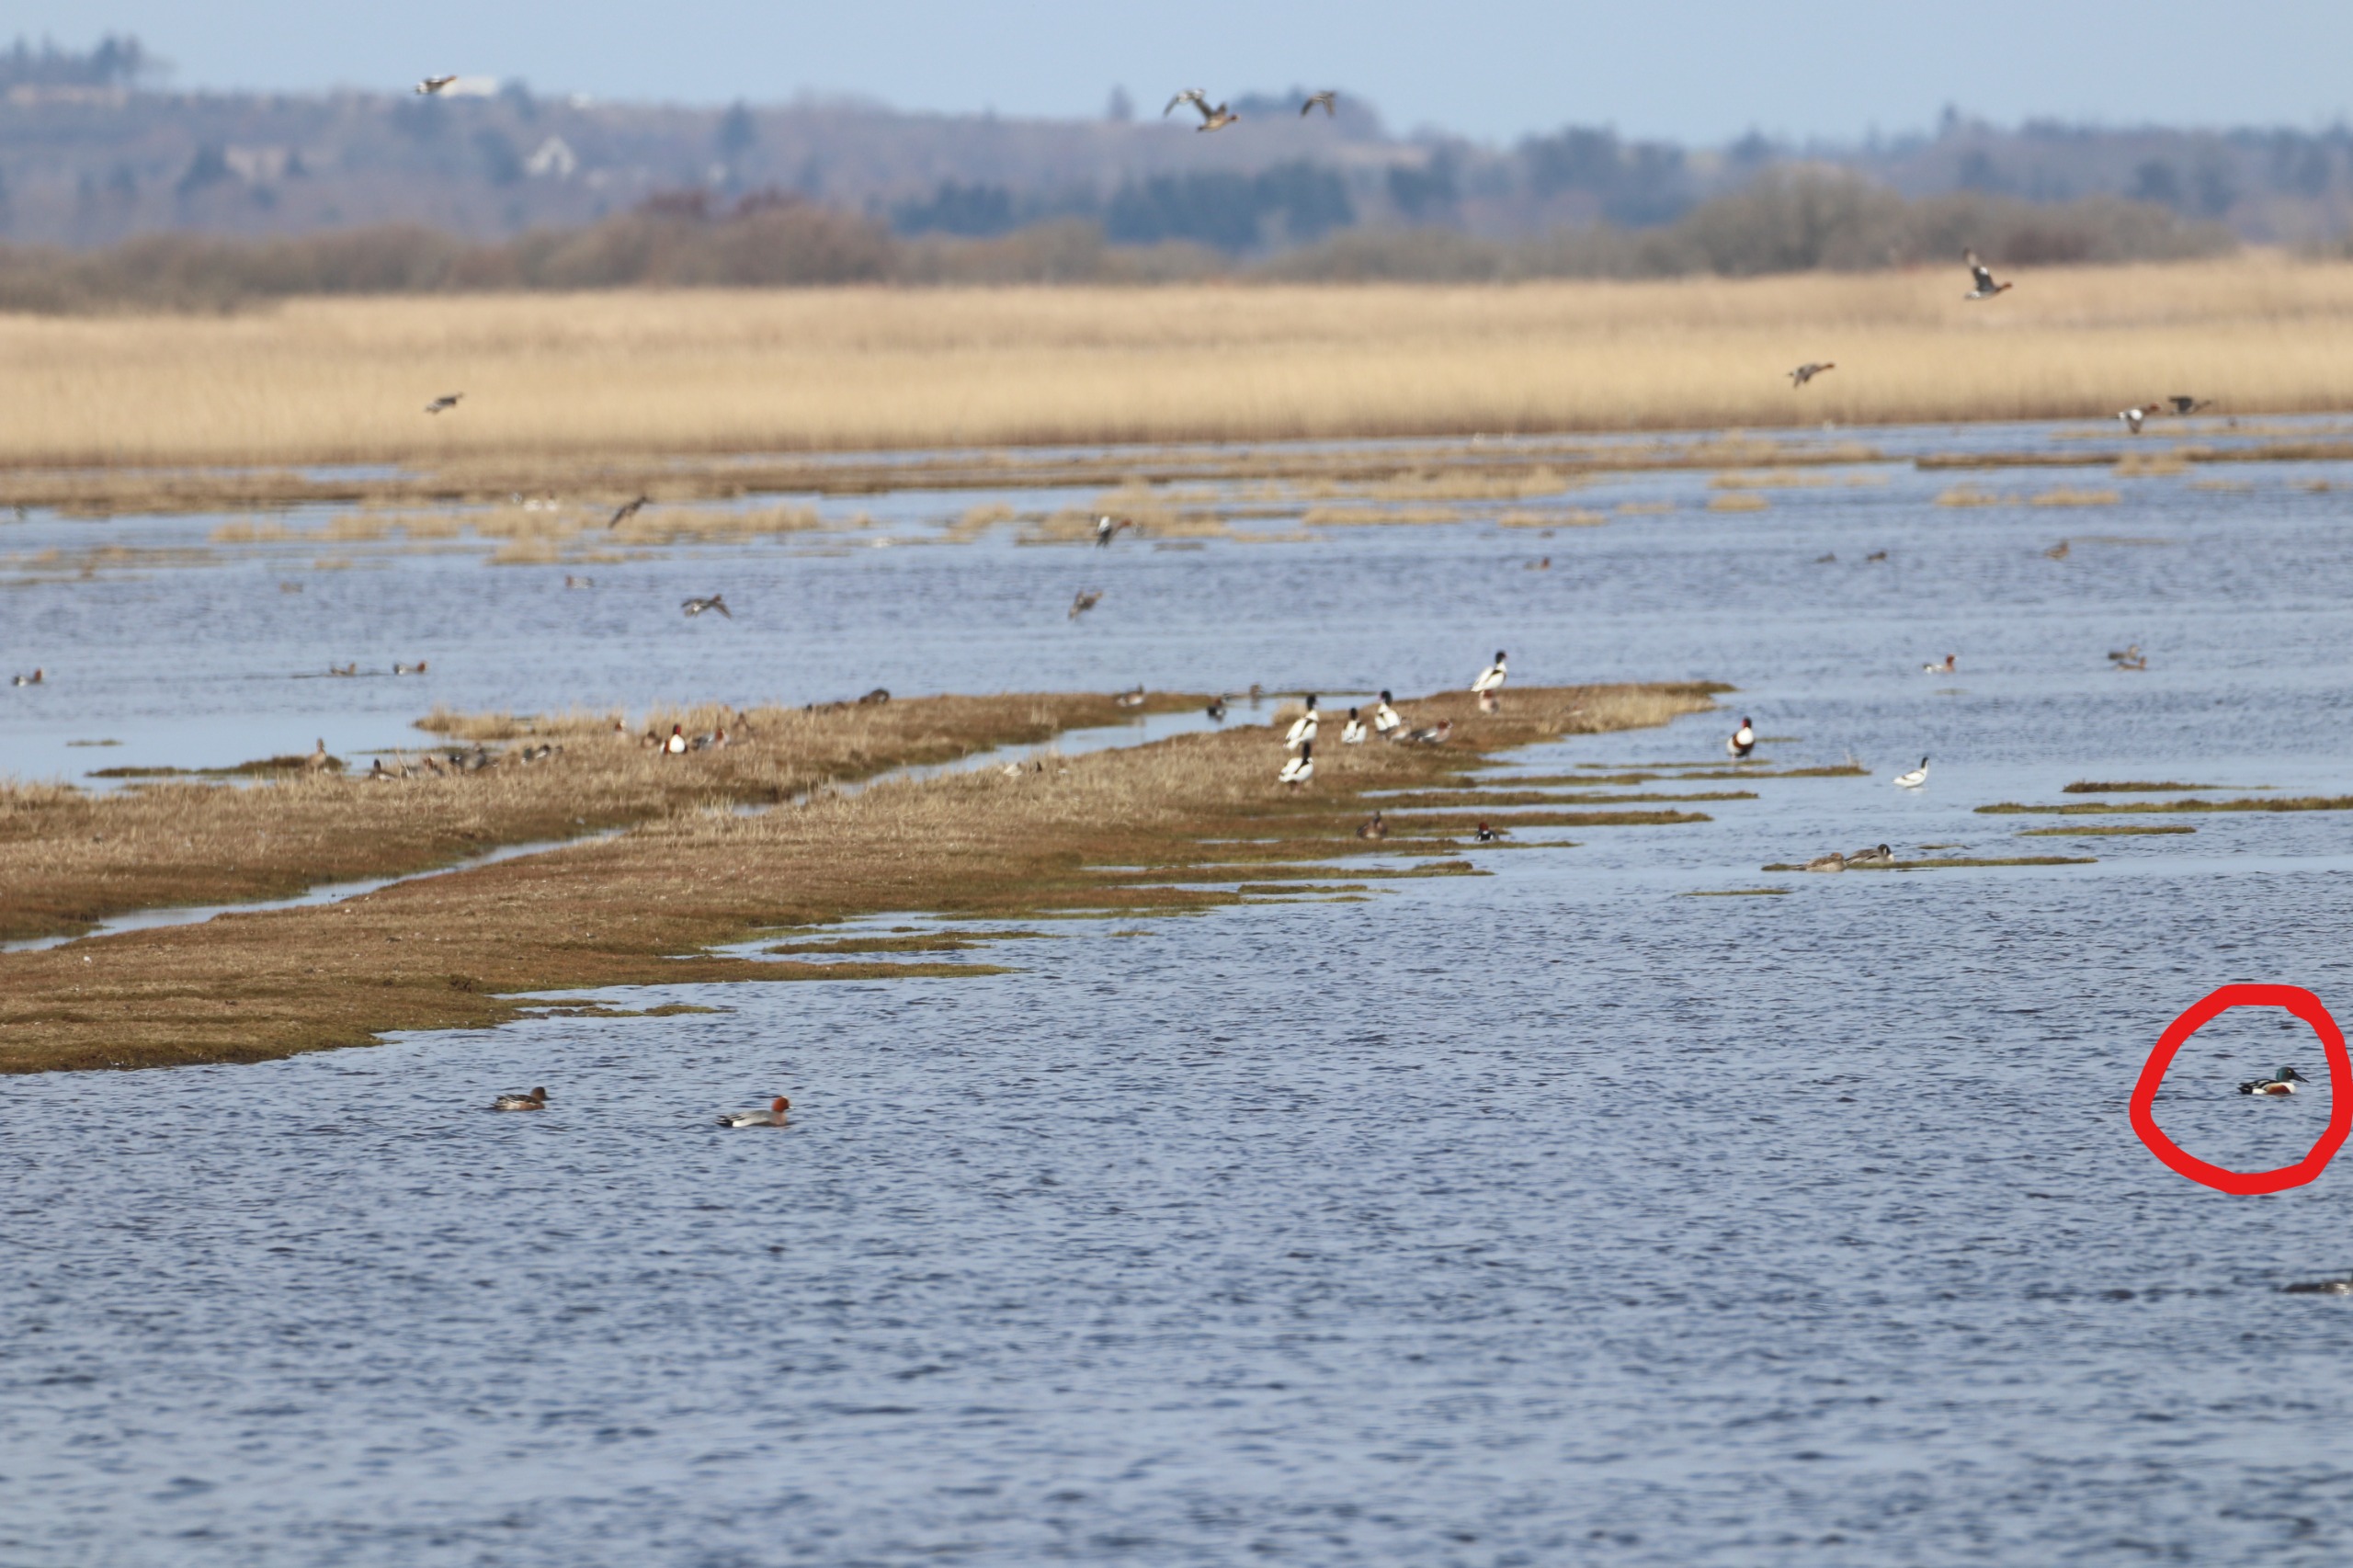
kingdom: Animalia
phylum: Chordata
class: Aves
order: Anseriformes
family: Anatidae
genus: Spatula
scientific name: Spatula clypeata
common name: Skeand
